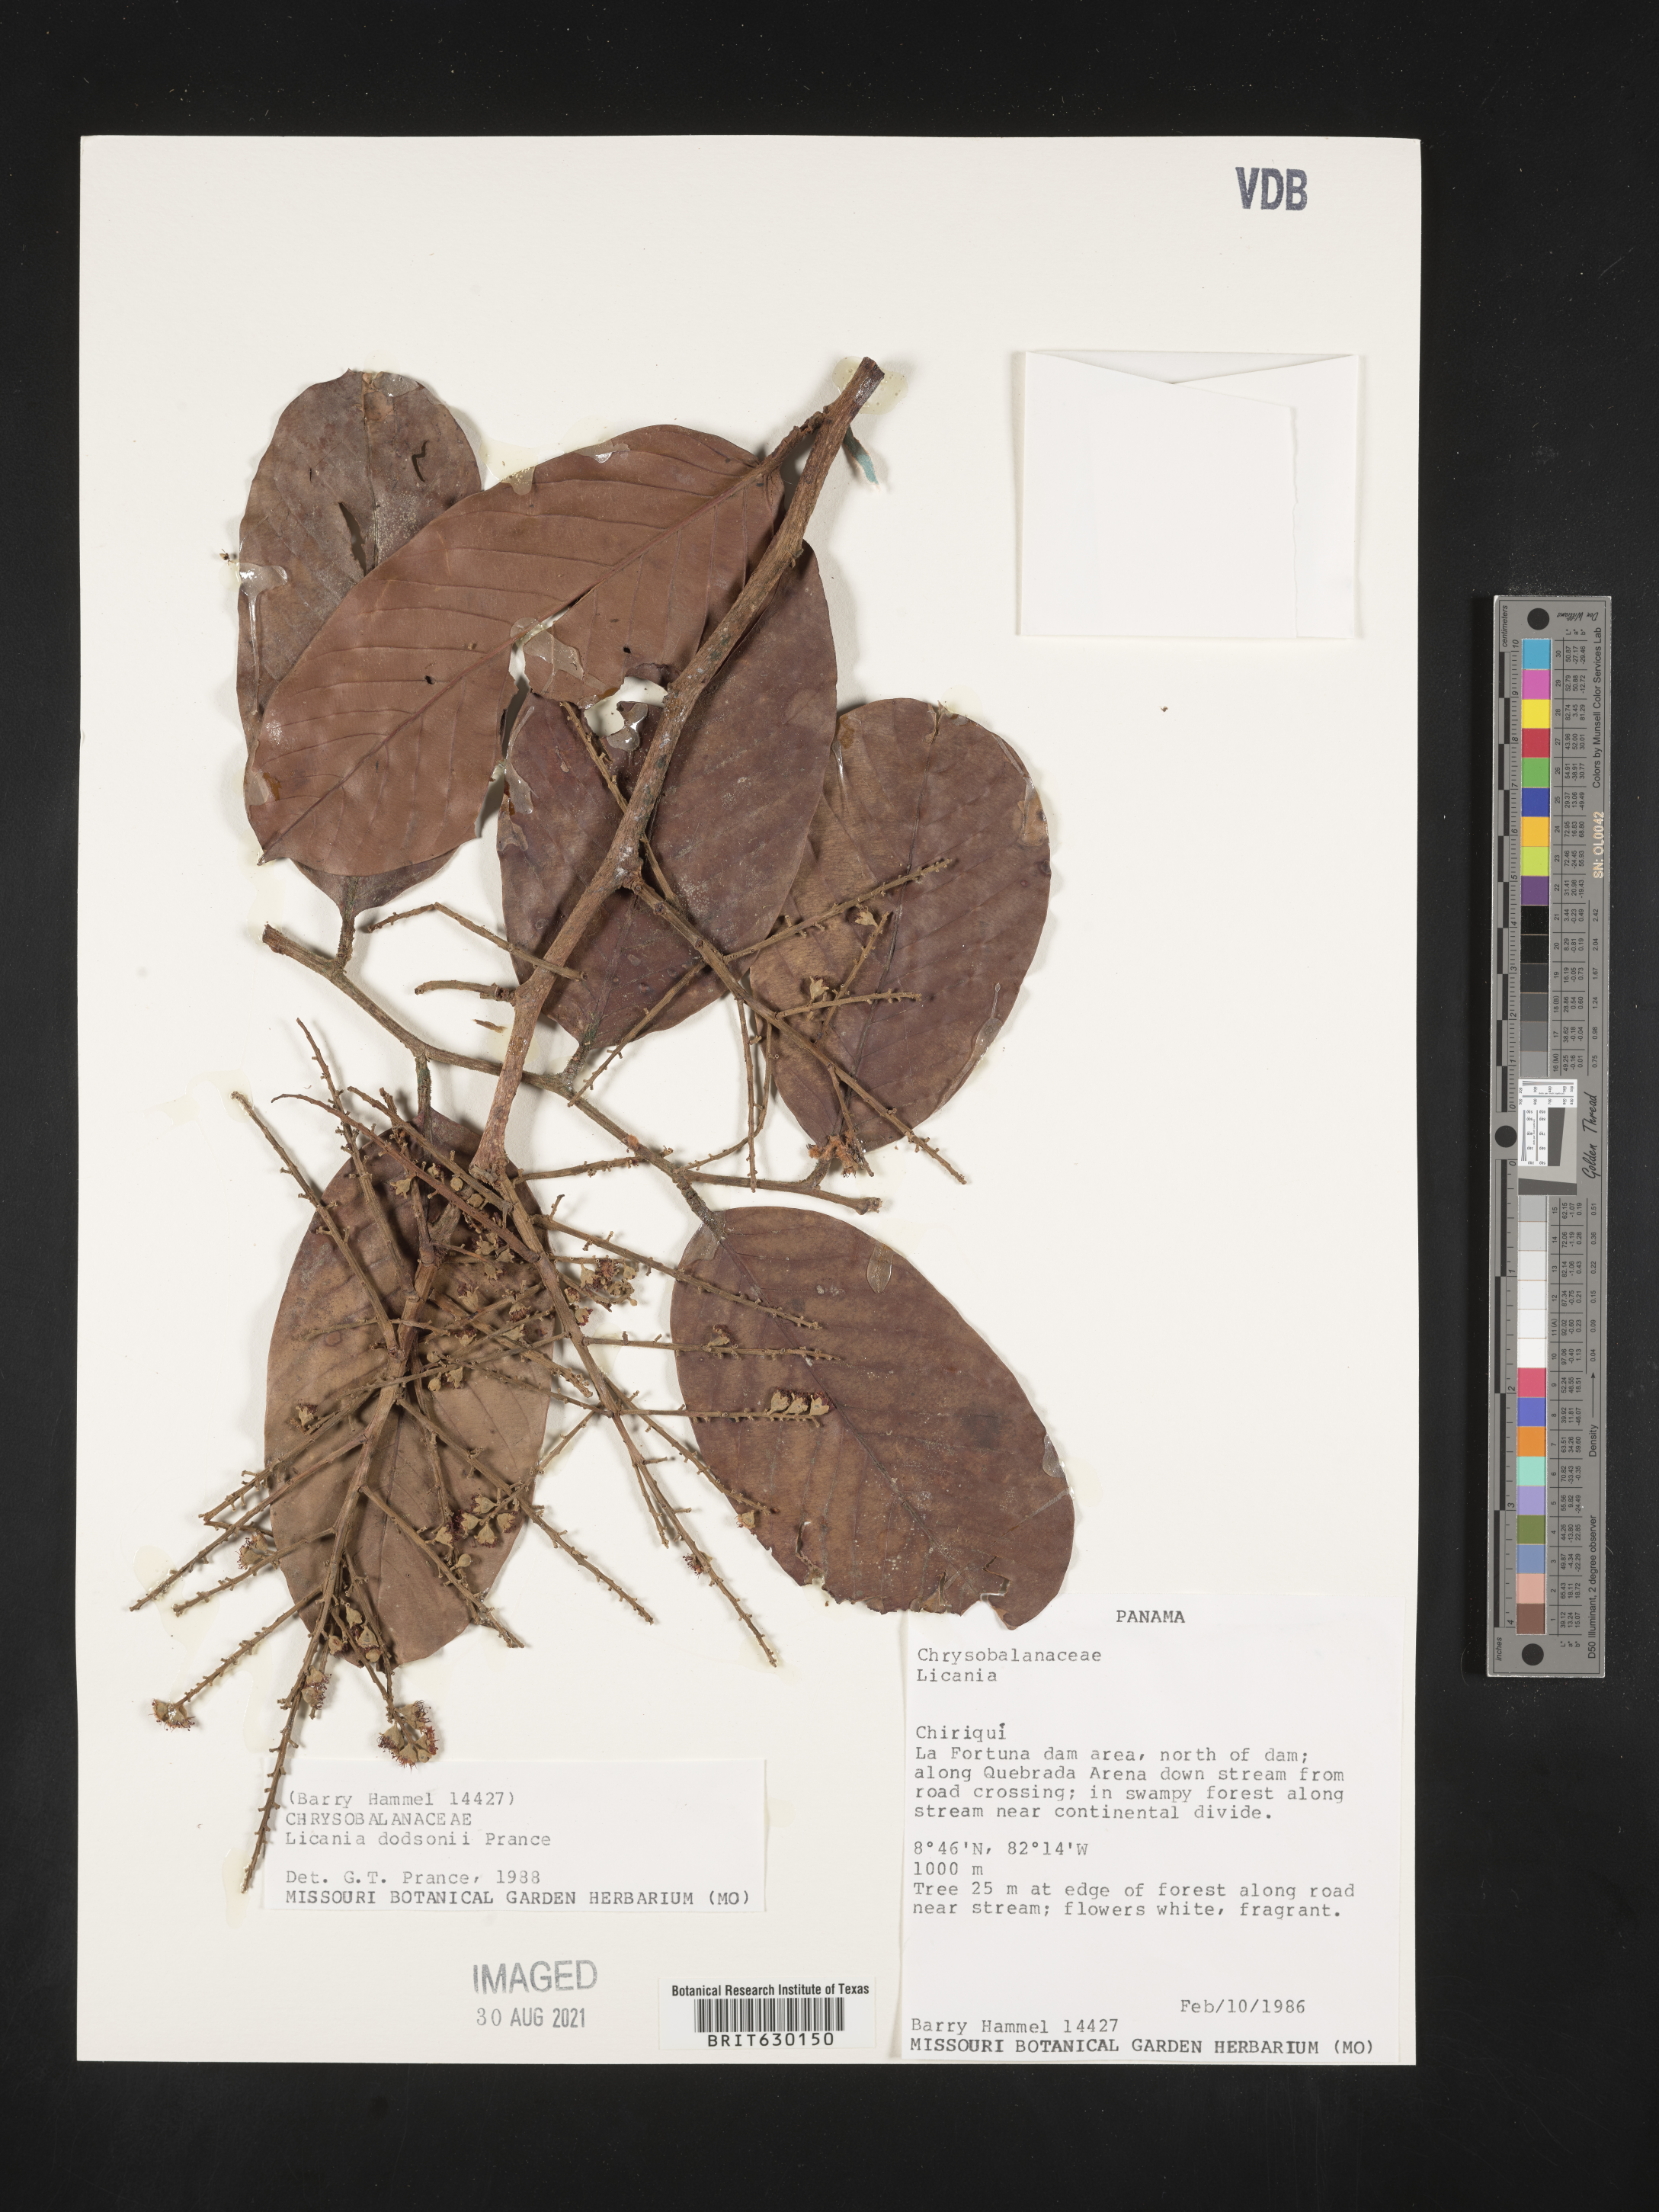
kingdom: Plantae
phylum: Tracheophyta
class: Magnoliopsida
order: Malpighiales
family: Chrysobalanaceae
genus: Moquilea
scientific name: Moquilea dodsonii
